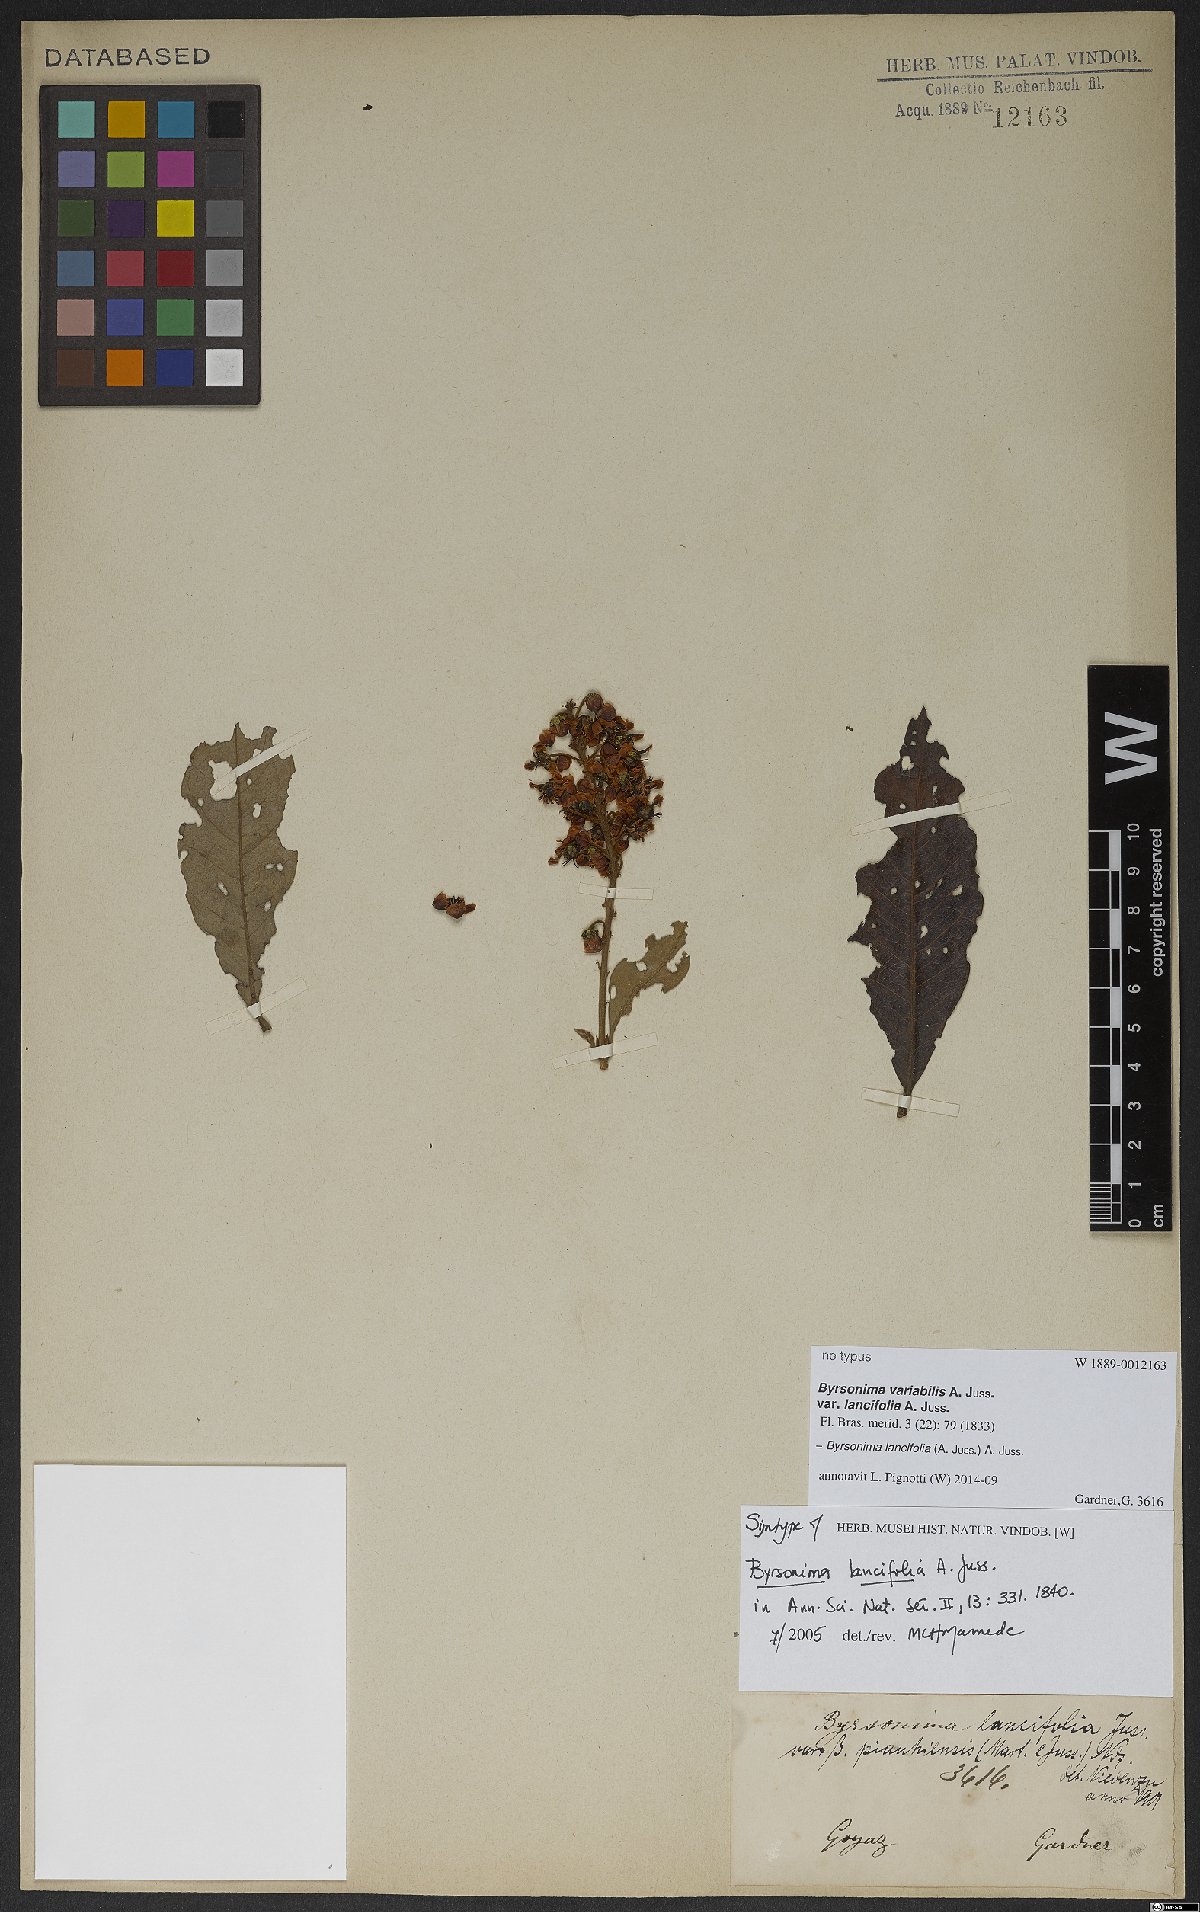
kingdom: Plantae
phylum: Tracheophyta
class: Magnoliopsida
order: Malpighiales
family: Malpighiaceae
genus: Byrsonima
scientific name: Byrsonima lancifolia
